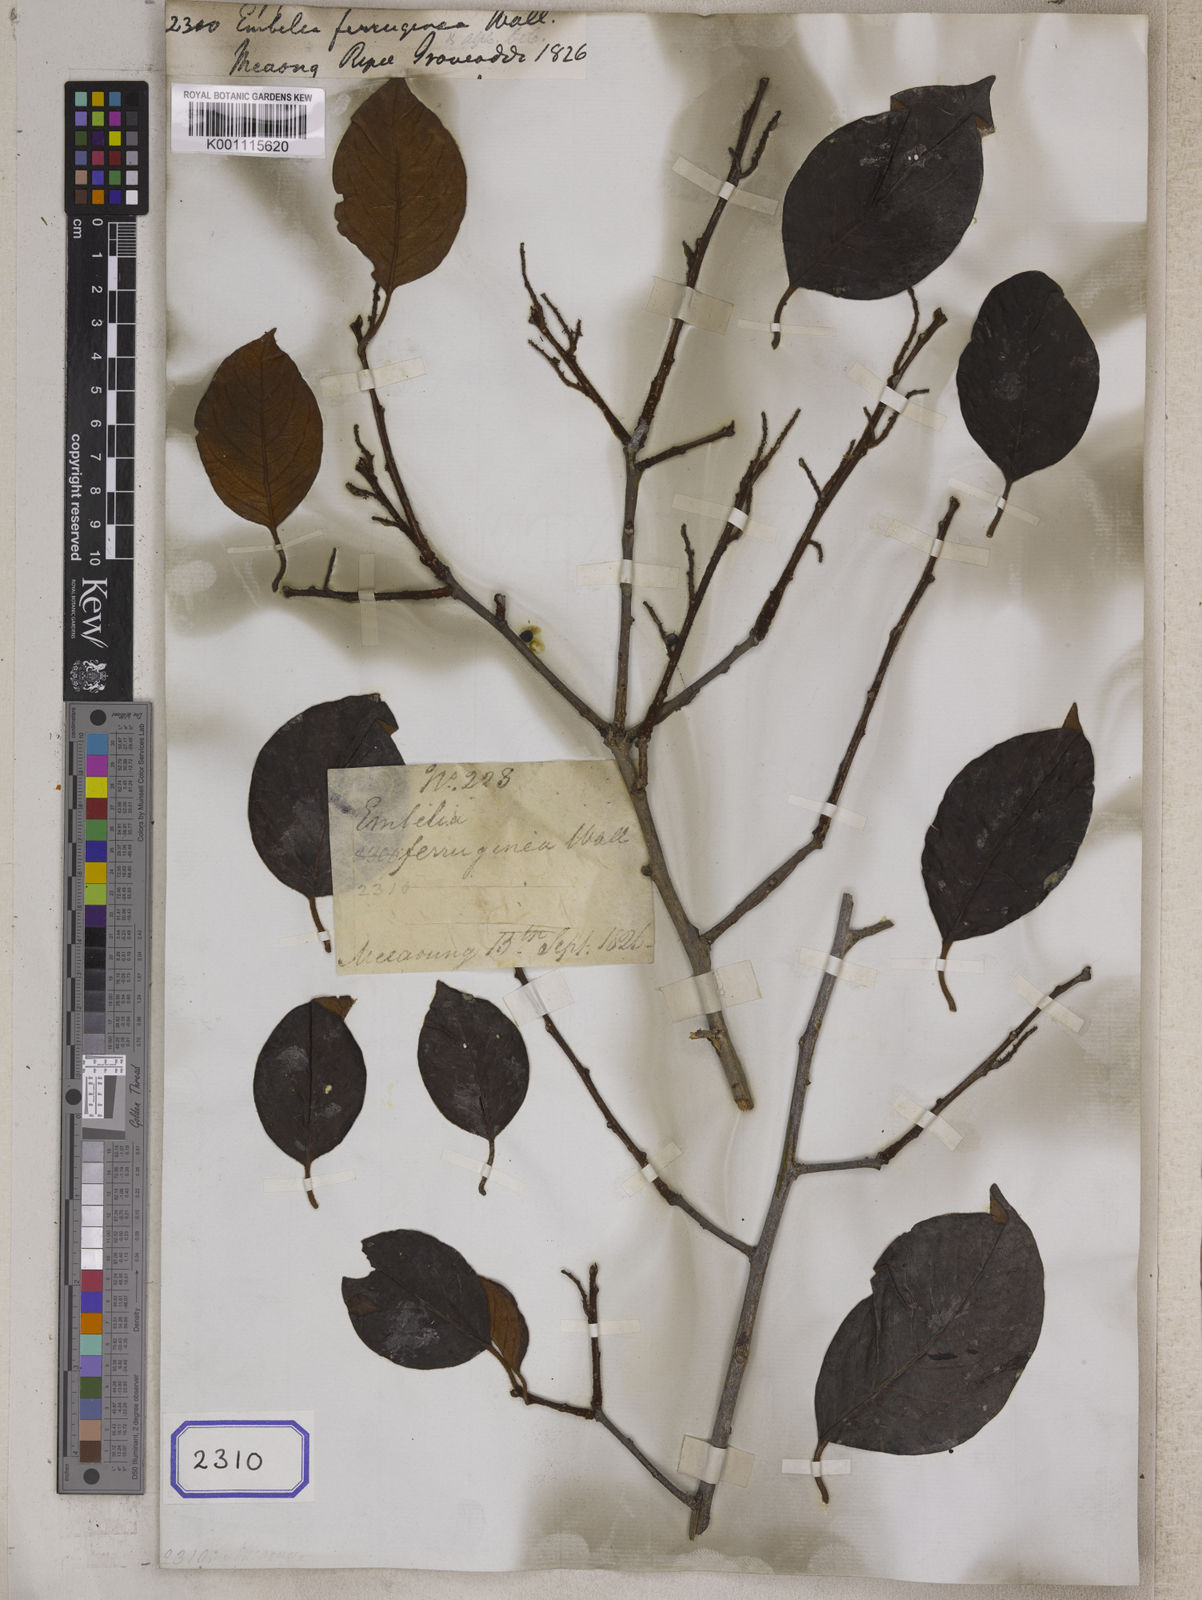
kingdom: Plantae
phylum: Tracheophyta
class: Magnoliopsida
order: Ericales
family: Primulaceae
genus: Embelia
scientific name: Embelia
